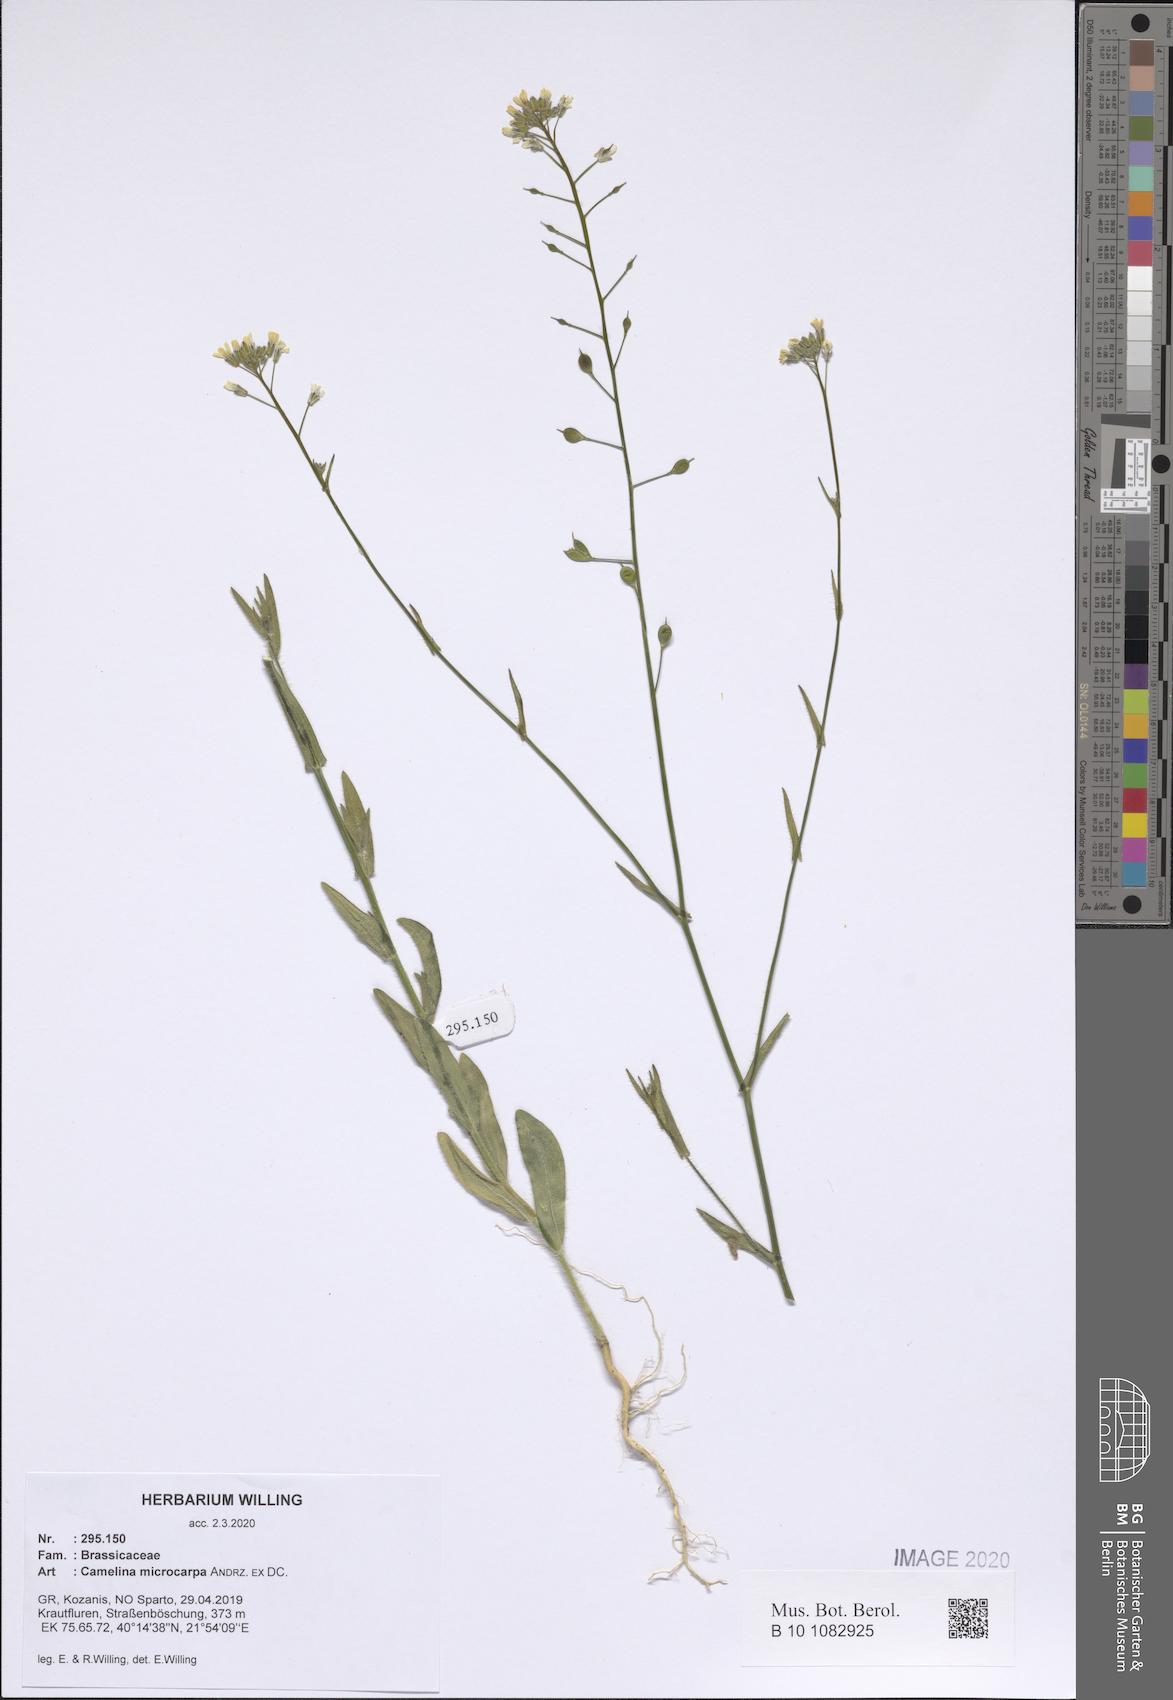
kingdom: Plantae
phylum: Tracheophyta
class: Magnoliopsida
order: Brassicales
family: Brassicaceae
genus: Camelina
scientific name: Camelina microcarpa
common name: Lesser gold-of-pleasure
